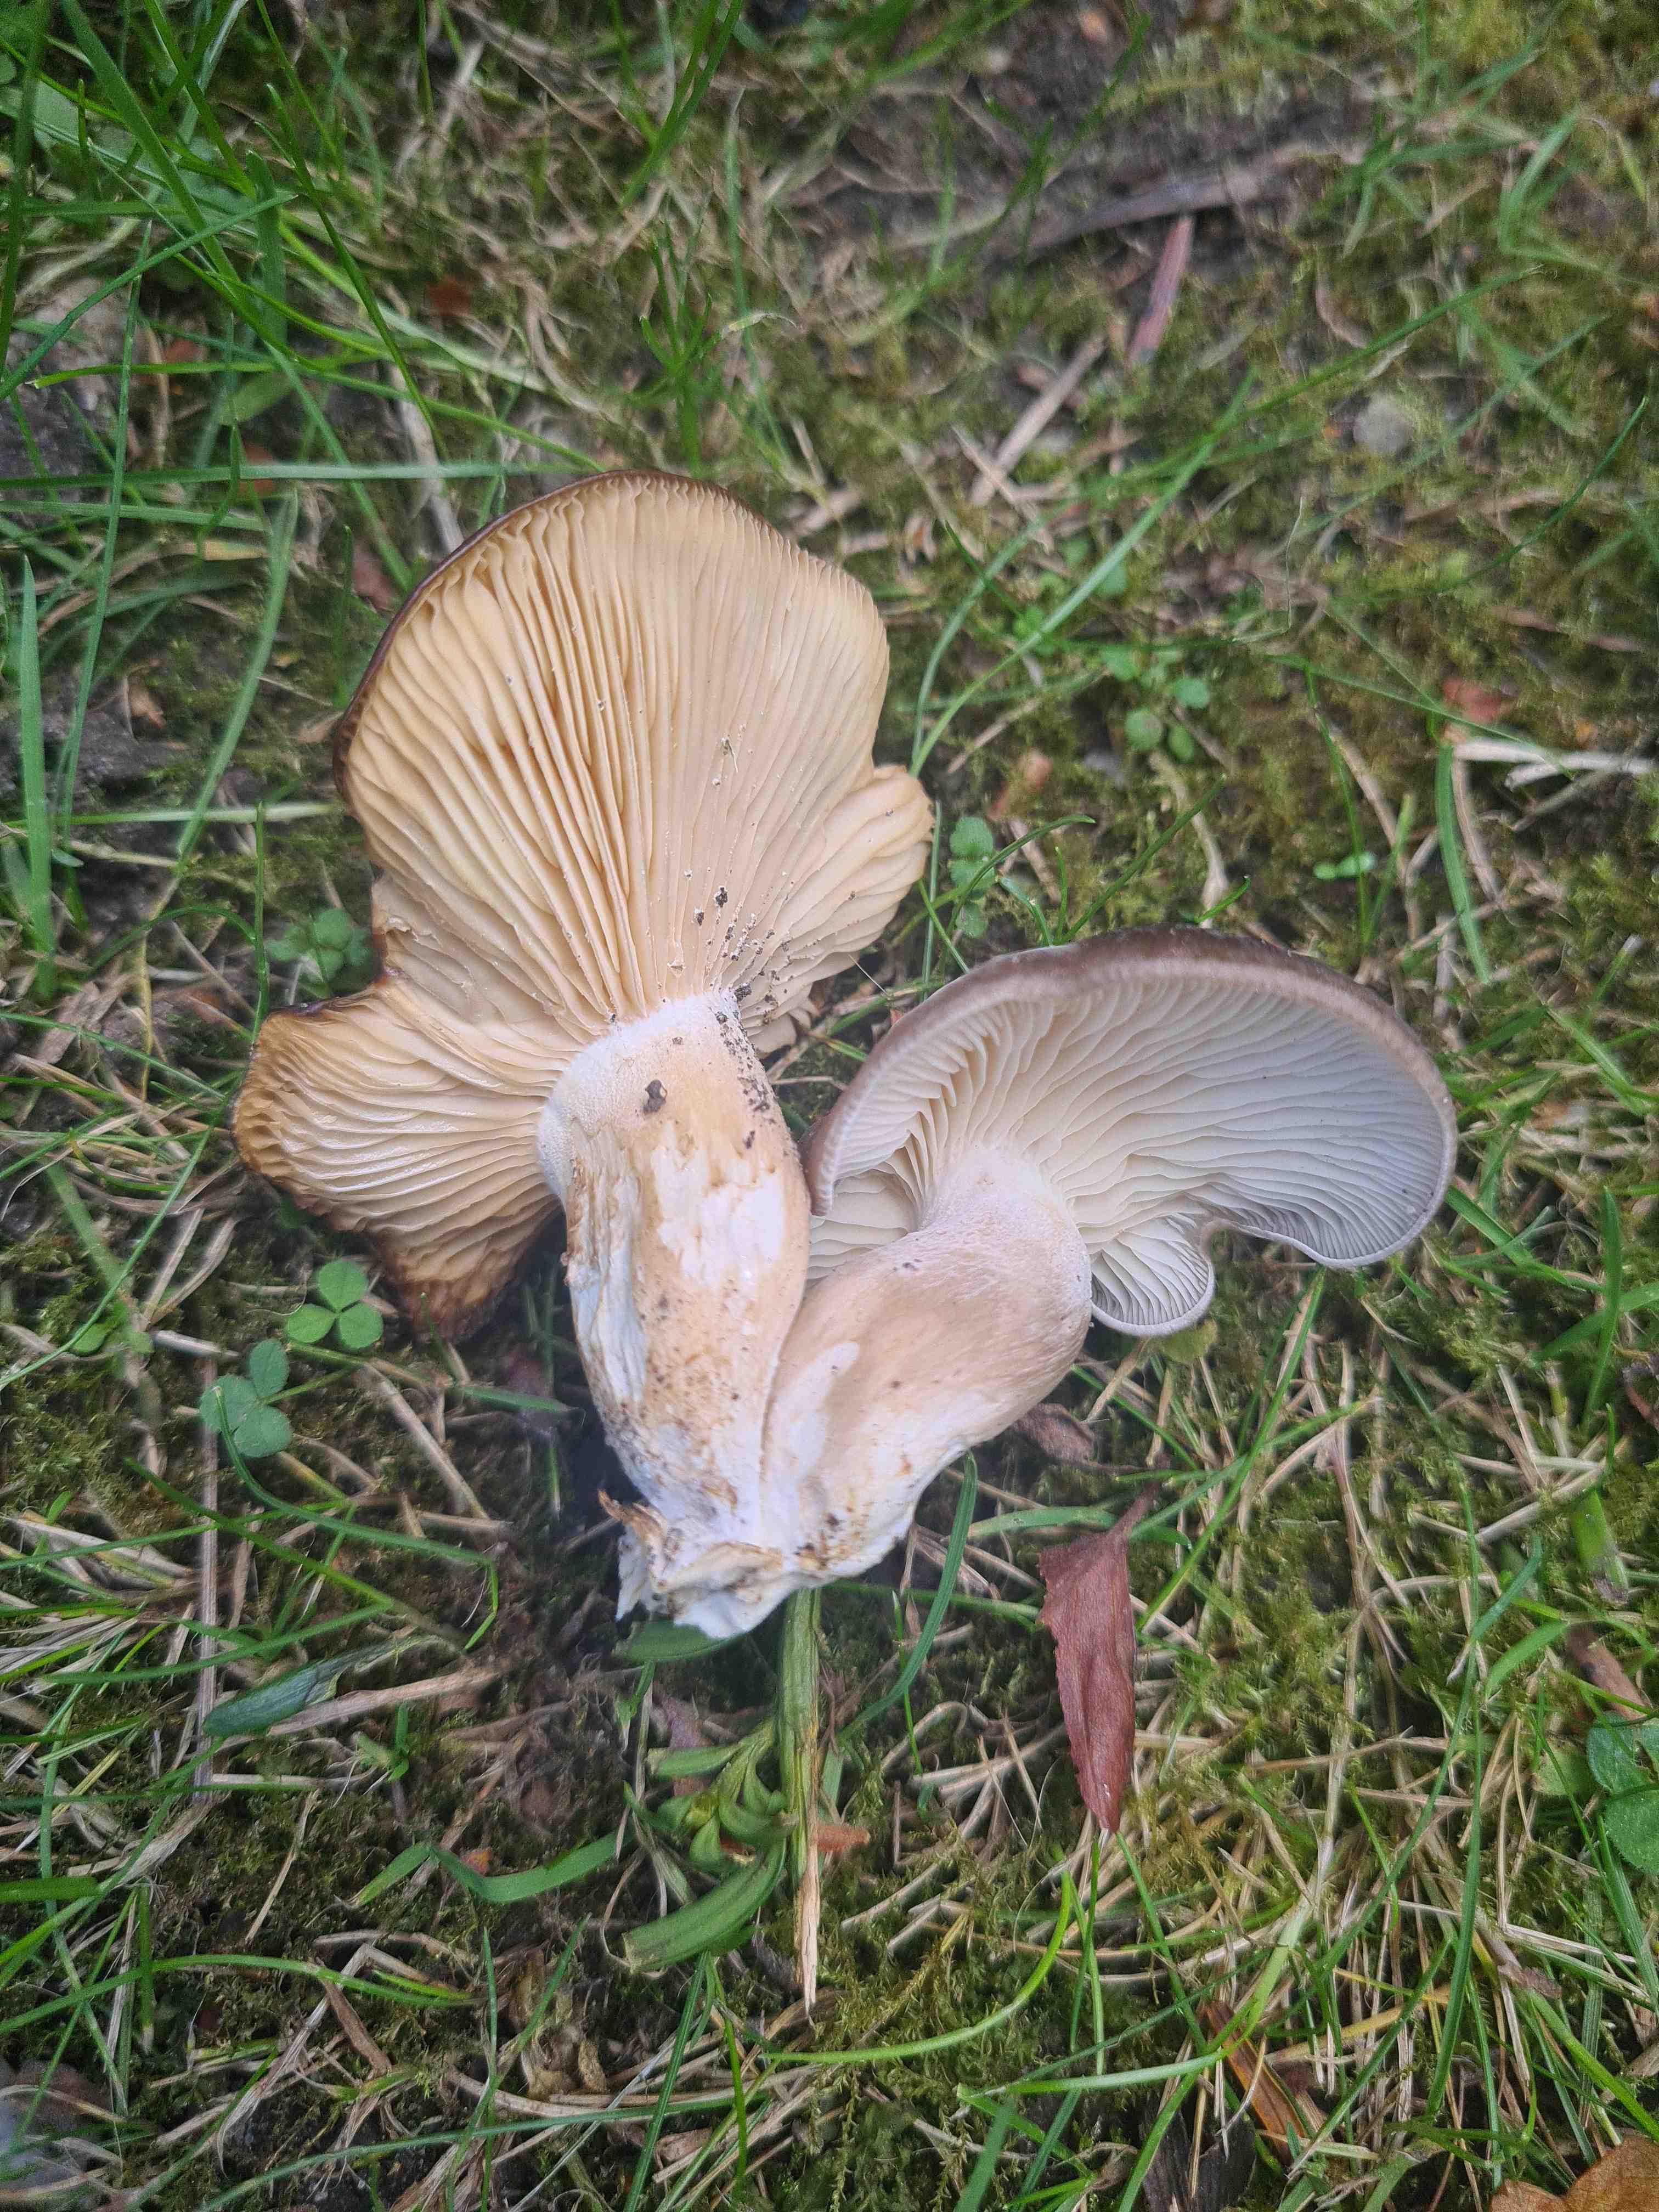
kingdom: Fungi
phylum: Basidiomycota
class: Agaricomycetes
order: Agaricales
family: Lyophyllaceae
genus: Lyophyllum
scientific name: Lyophyllum
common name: gråblad
